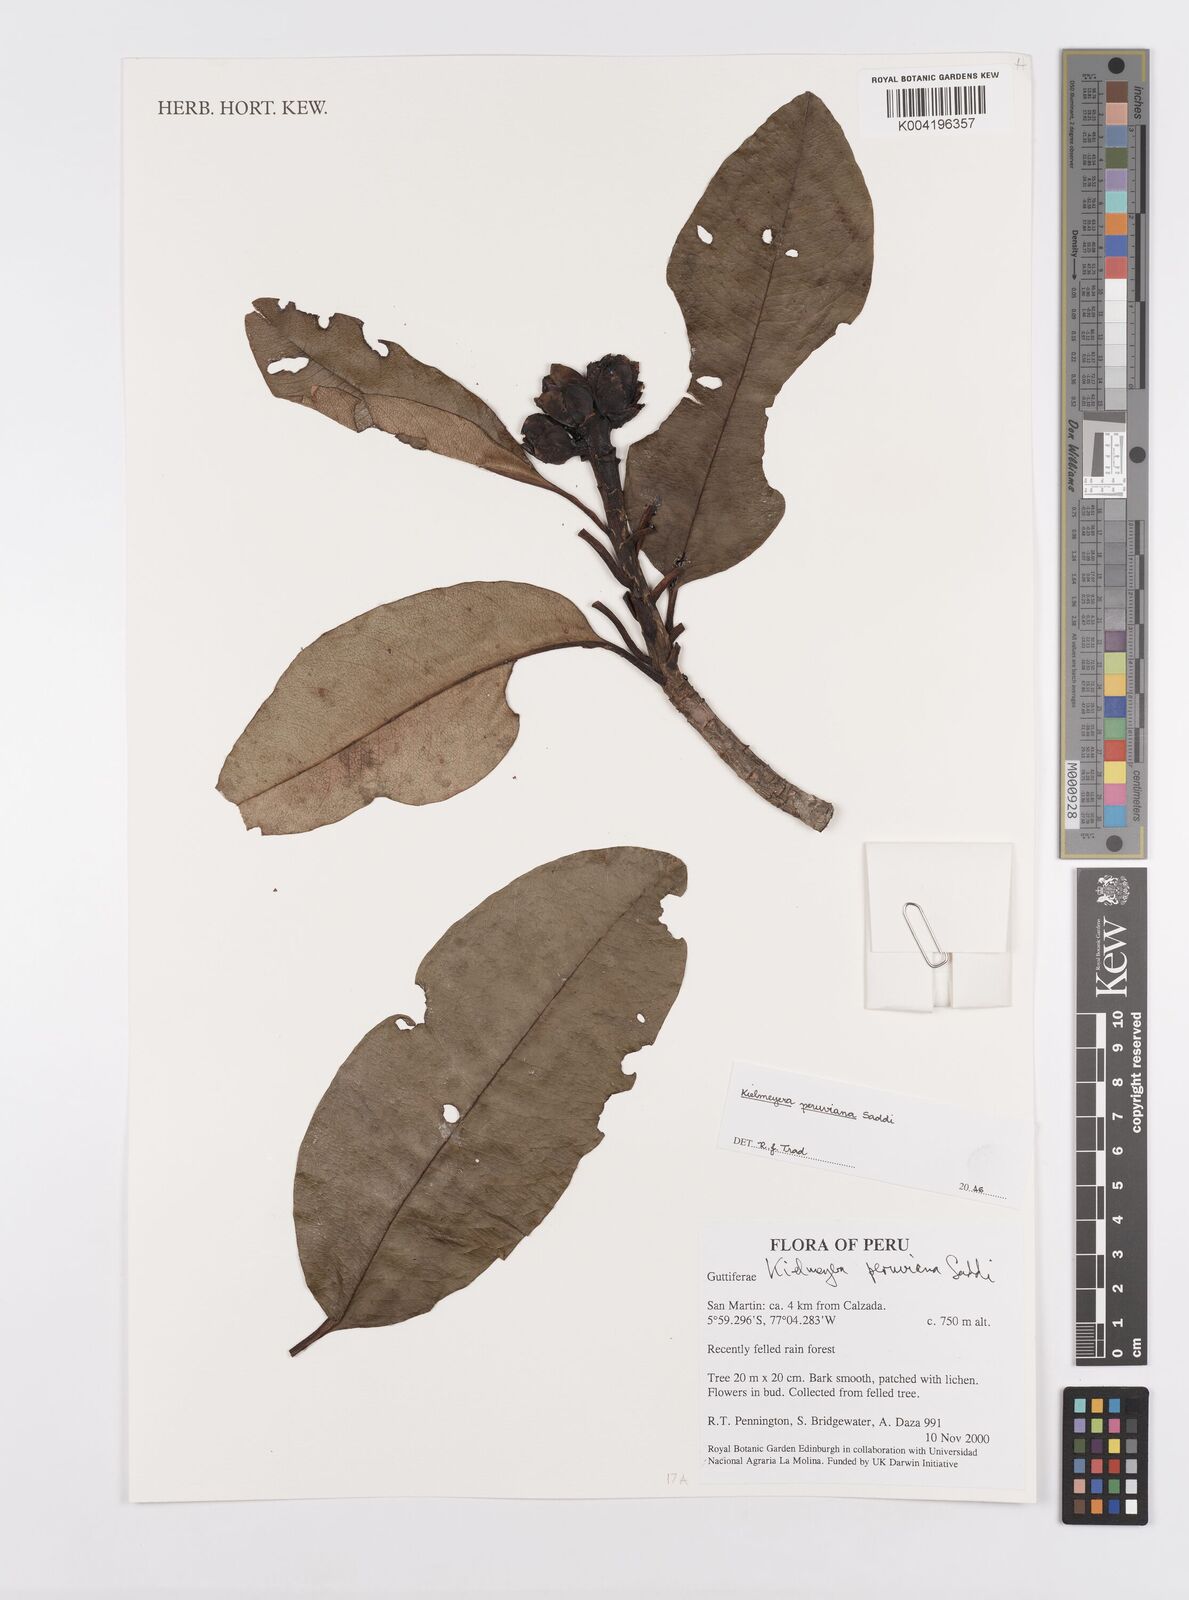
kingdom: Plantae
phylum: Tracheophyta
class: Magnoliopsida
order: Malpighiales
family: Calophyllaceae
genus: Kielmeyera
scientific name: Kielmeyera peruviana
